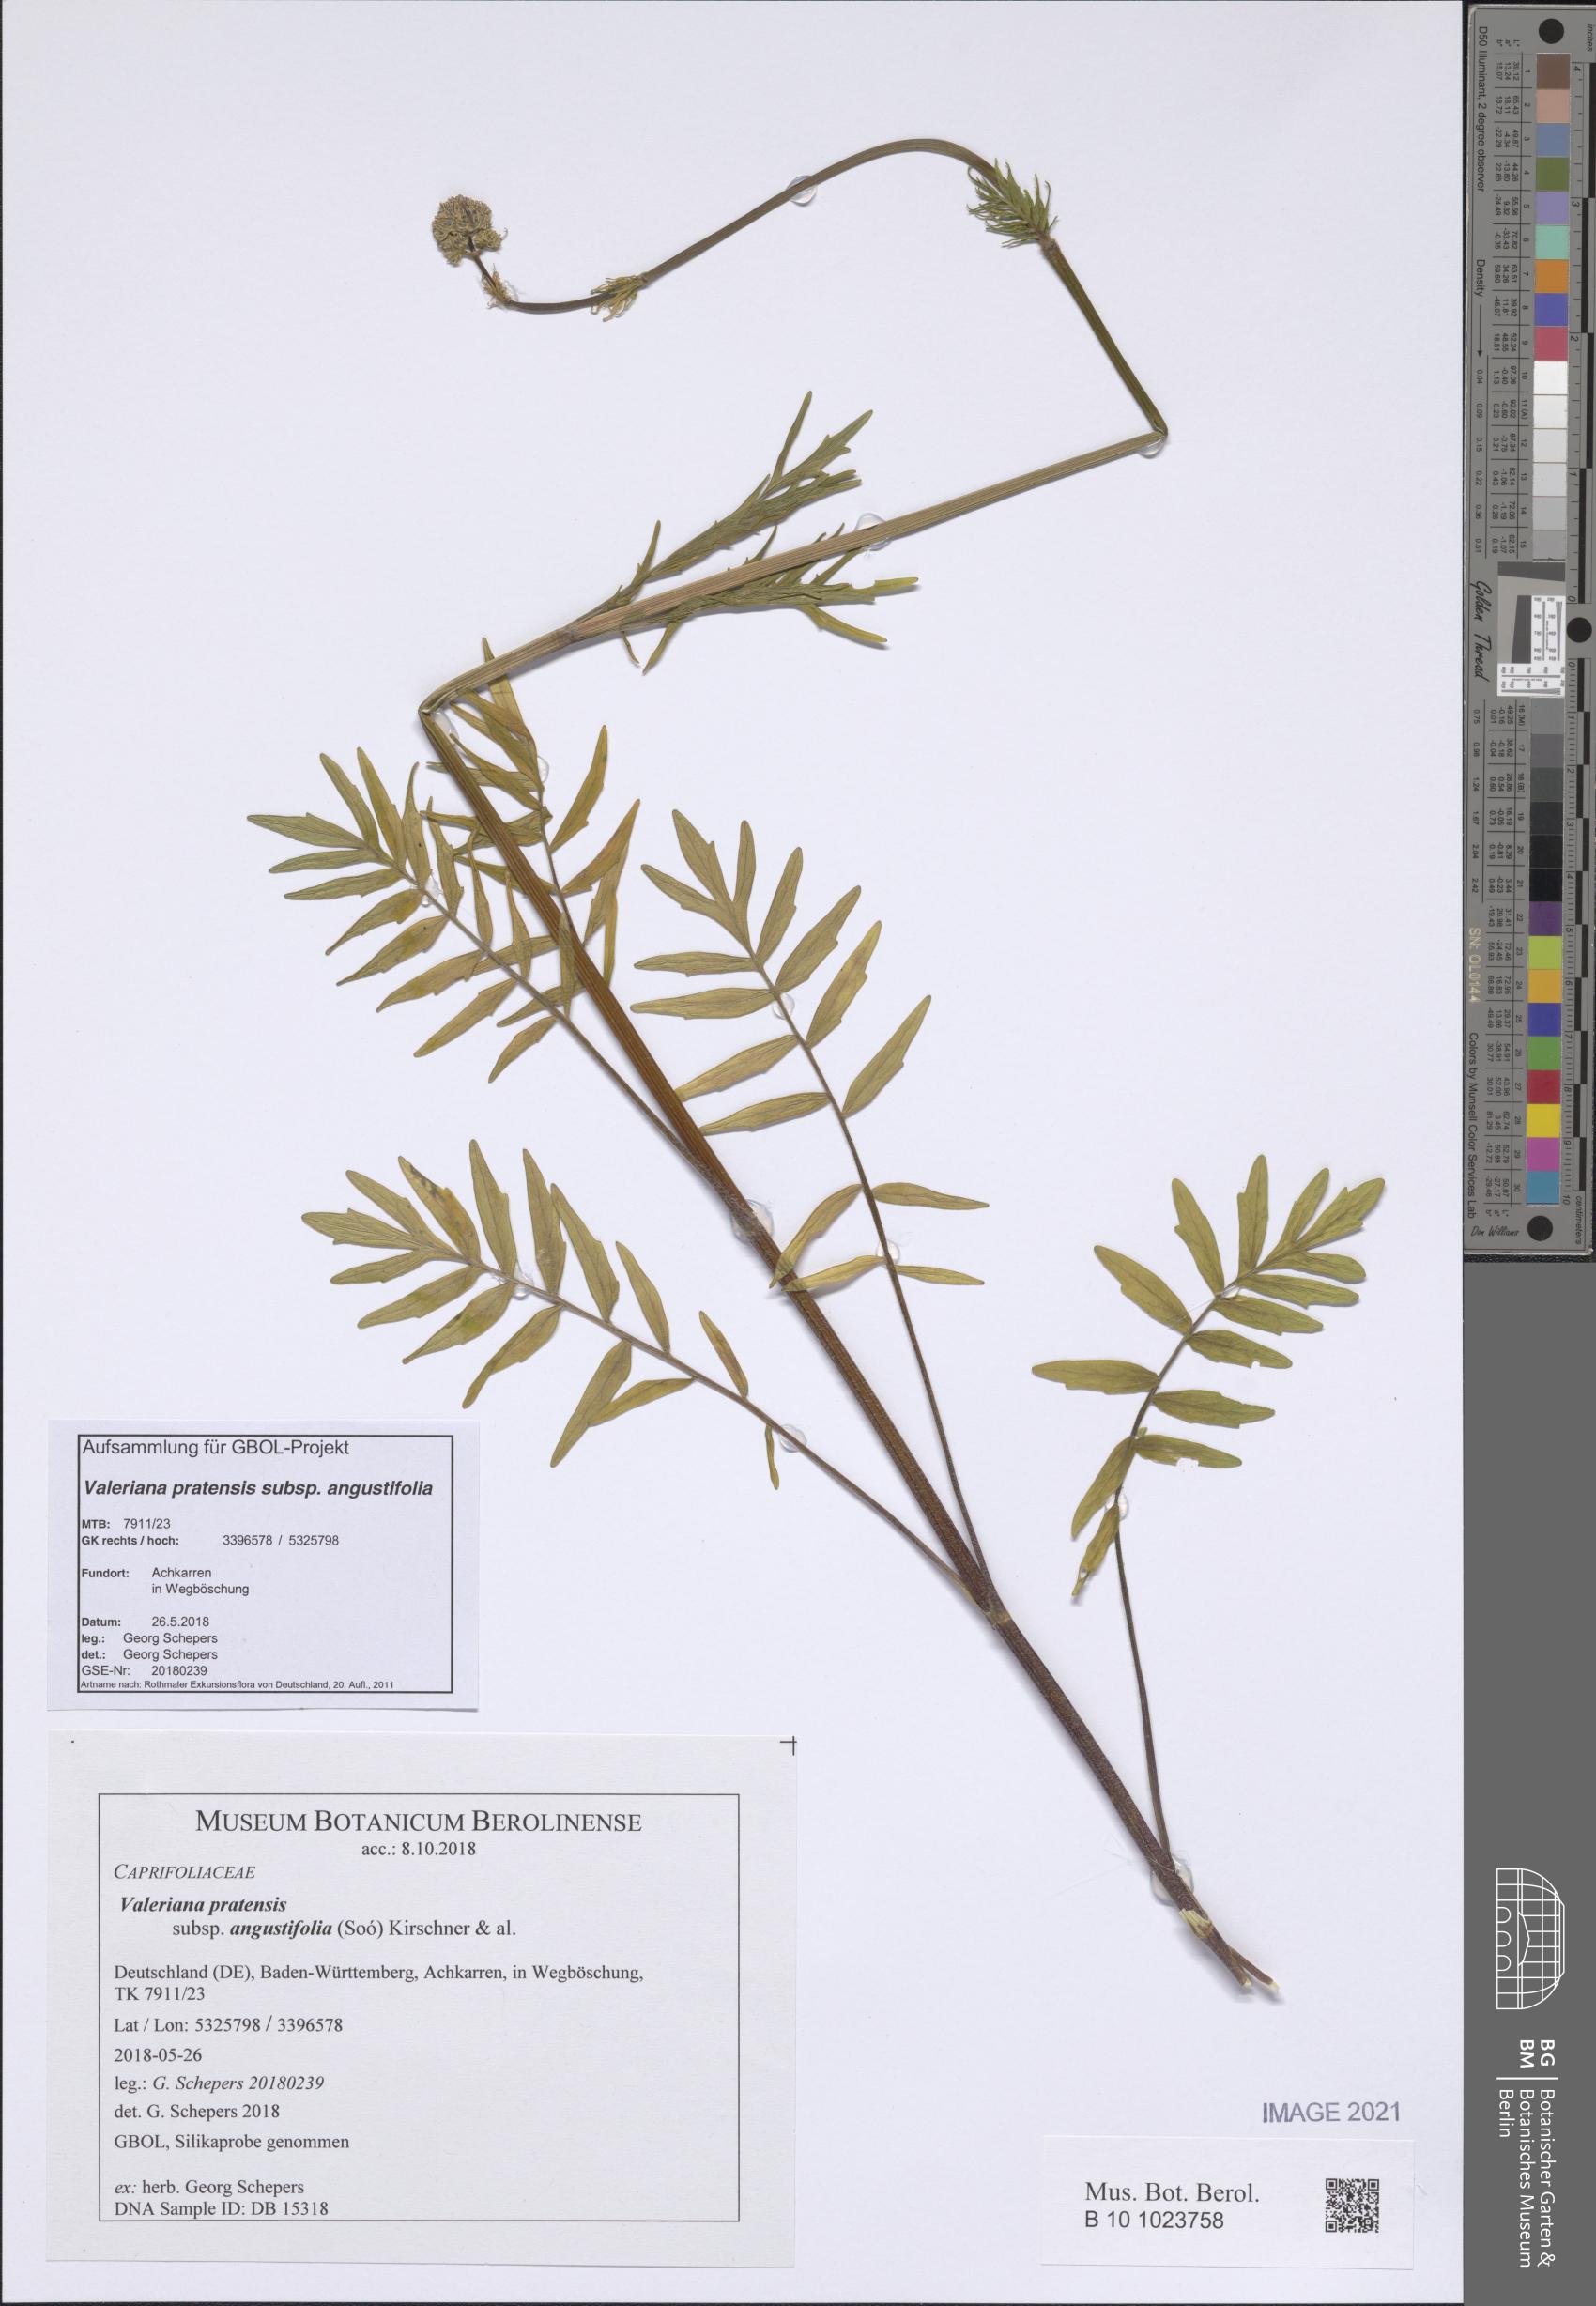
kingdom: Plantae
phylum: Tracheophyta
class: Magnoliopsida
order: Dipsacales
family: Caprifoliaceae
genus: Valeriana
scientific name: Valeriana pratensis
